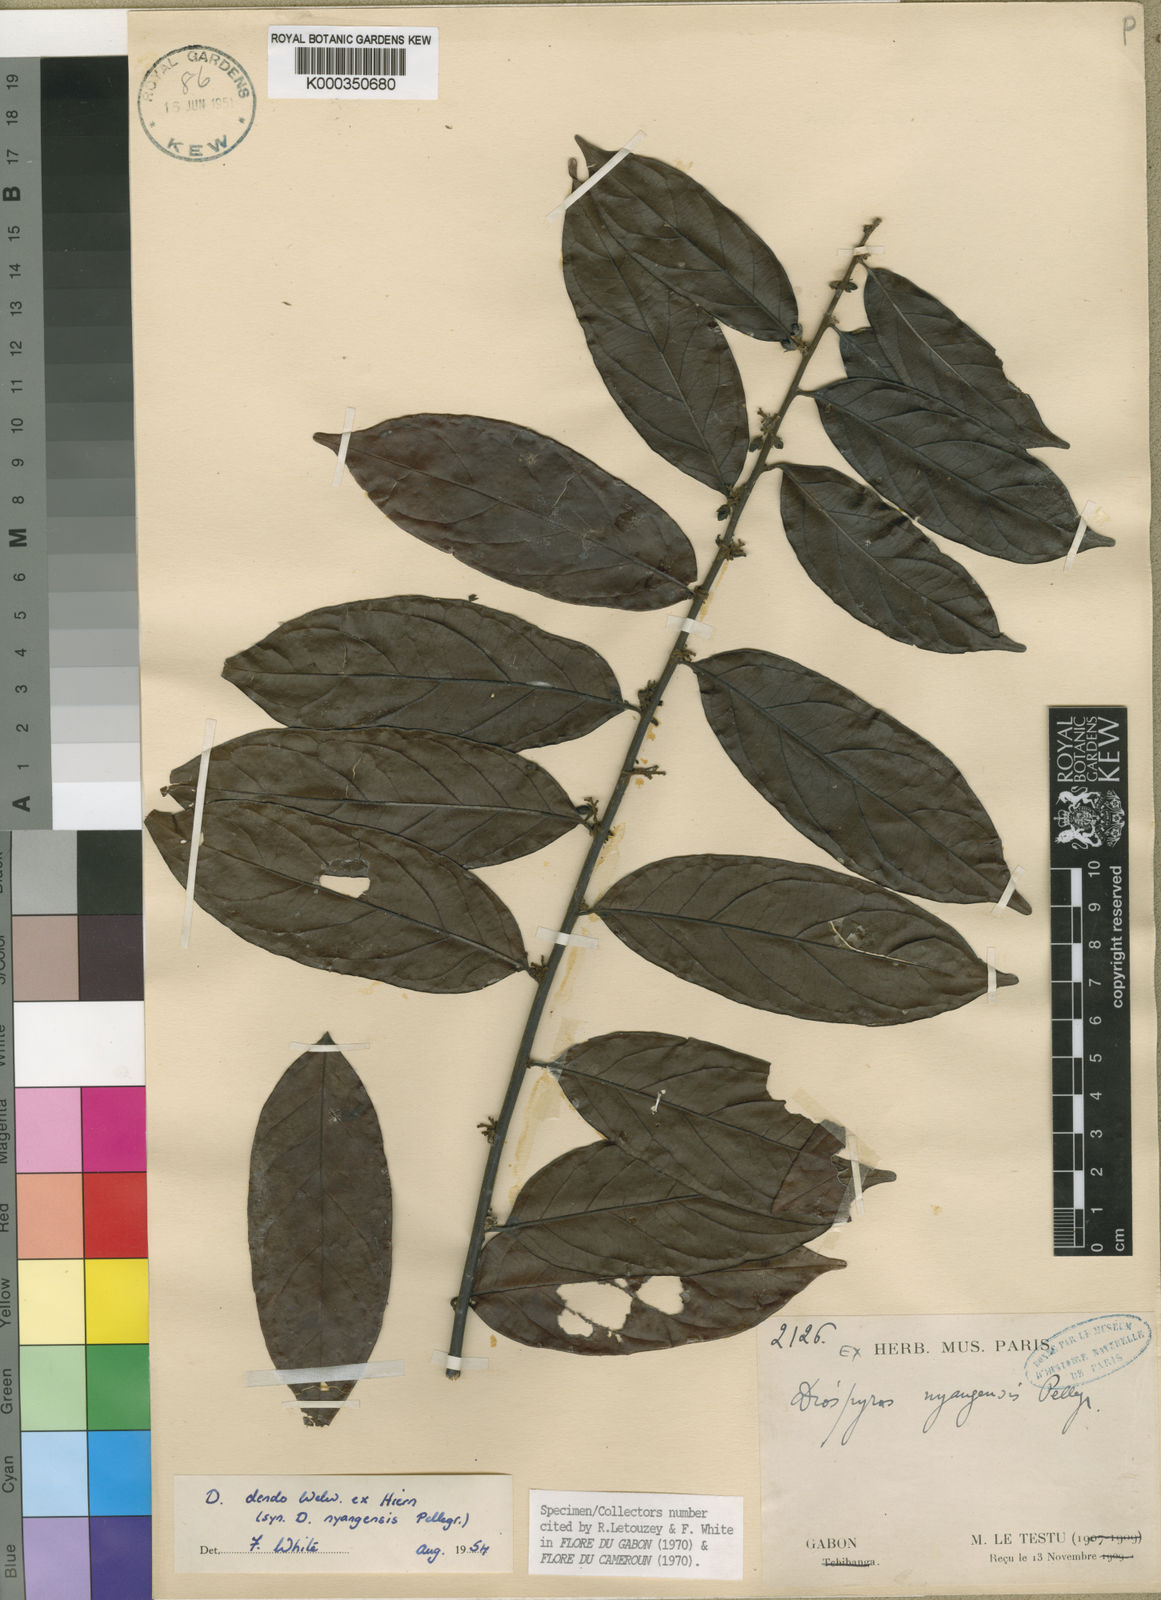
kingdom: Plantae
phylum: Tracheophyta
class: Magnoliopsida
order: Ericales
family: Ebenaceae
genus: Diospyros
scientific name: Diospyros dendo
